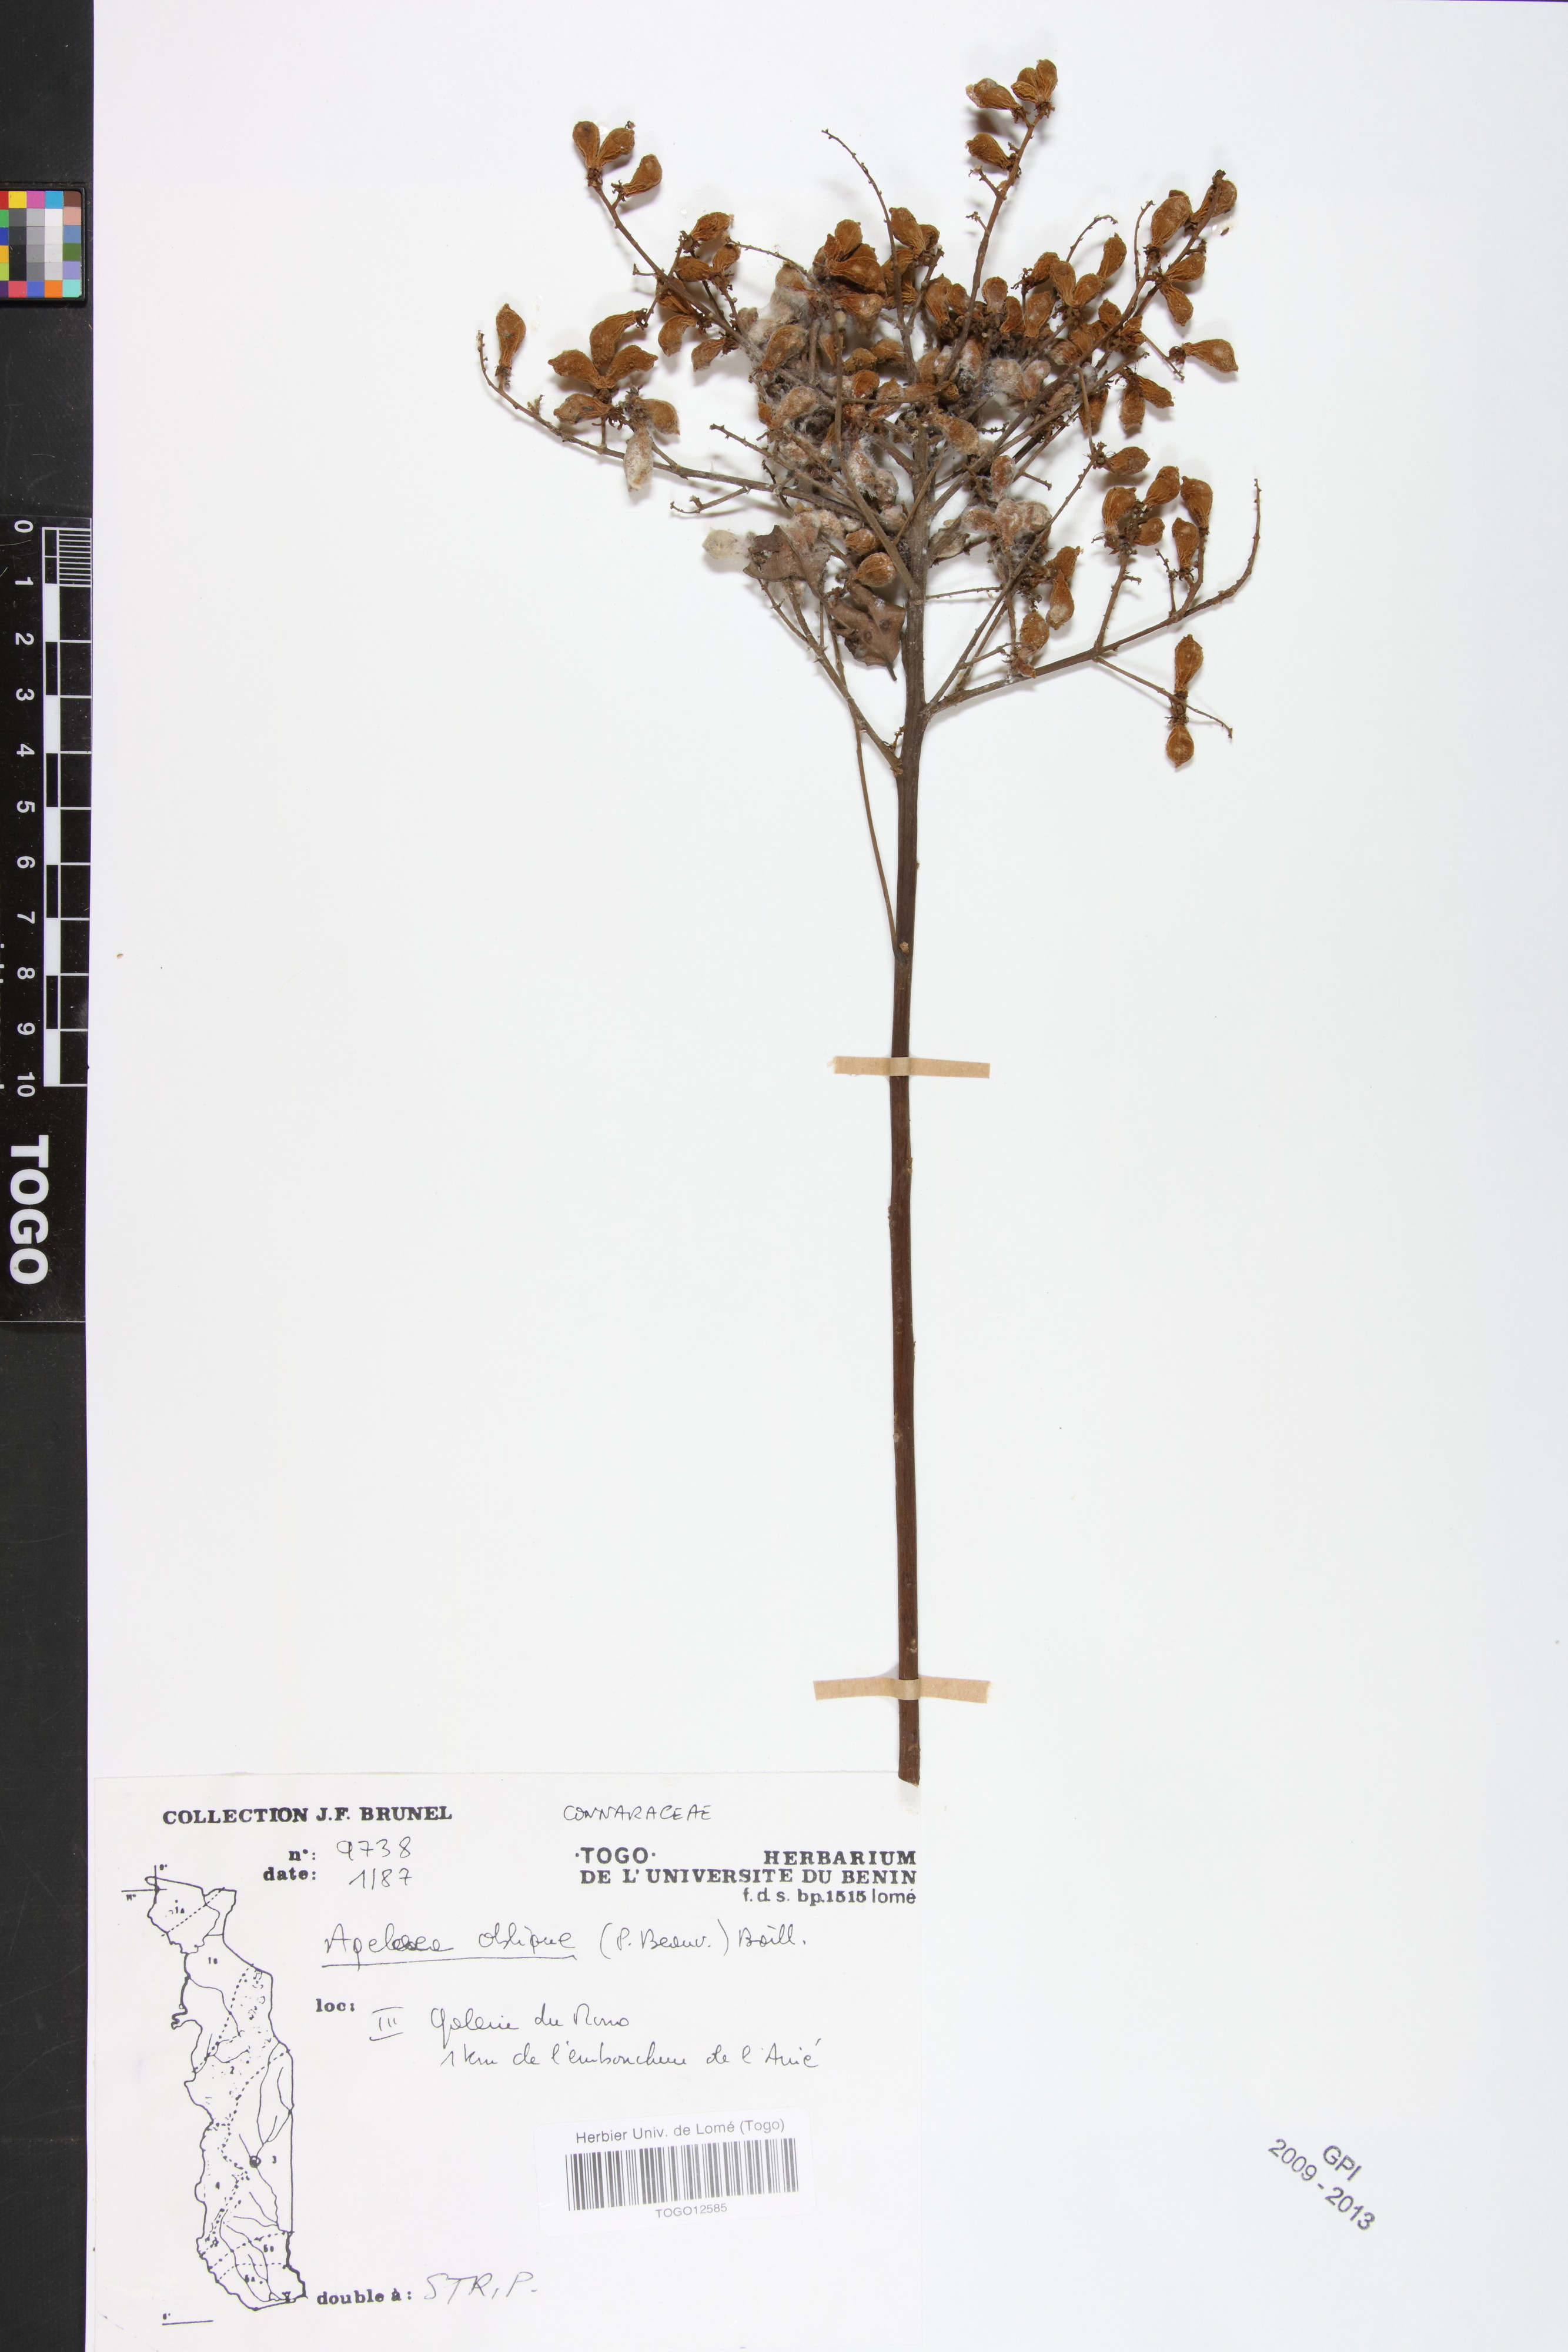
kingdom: Plantae
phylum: Tracheophyta
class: Magnoliopsida
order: Oxalidales
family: Connaraceae
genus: Agelaea
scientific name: Agelaea pentagyna
